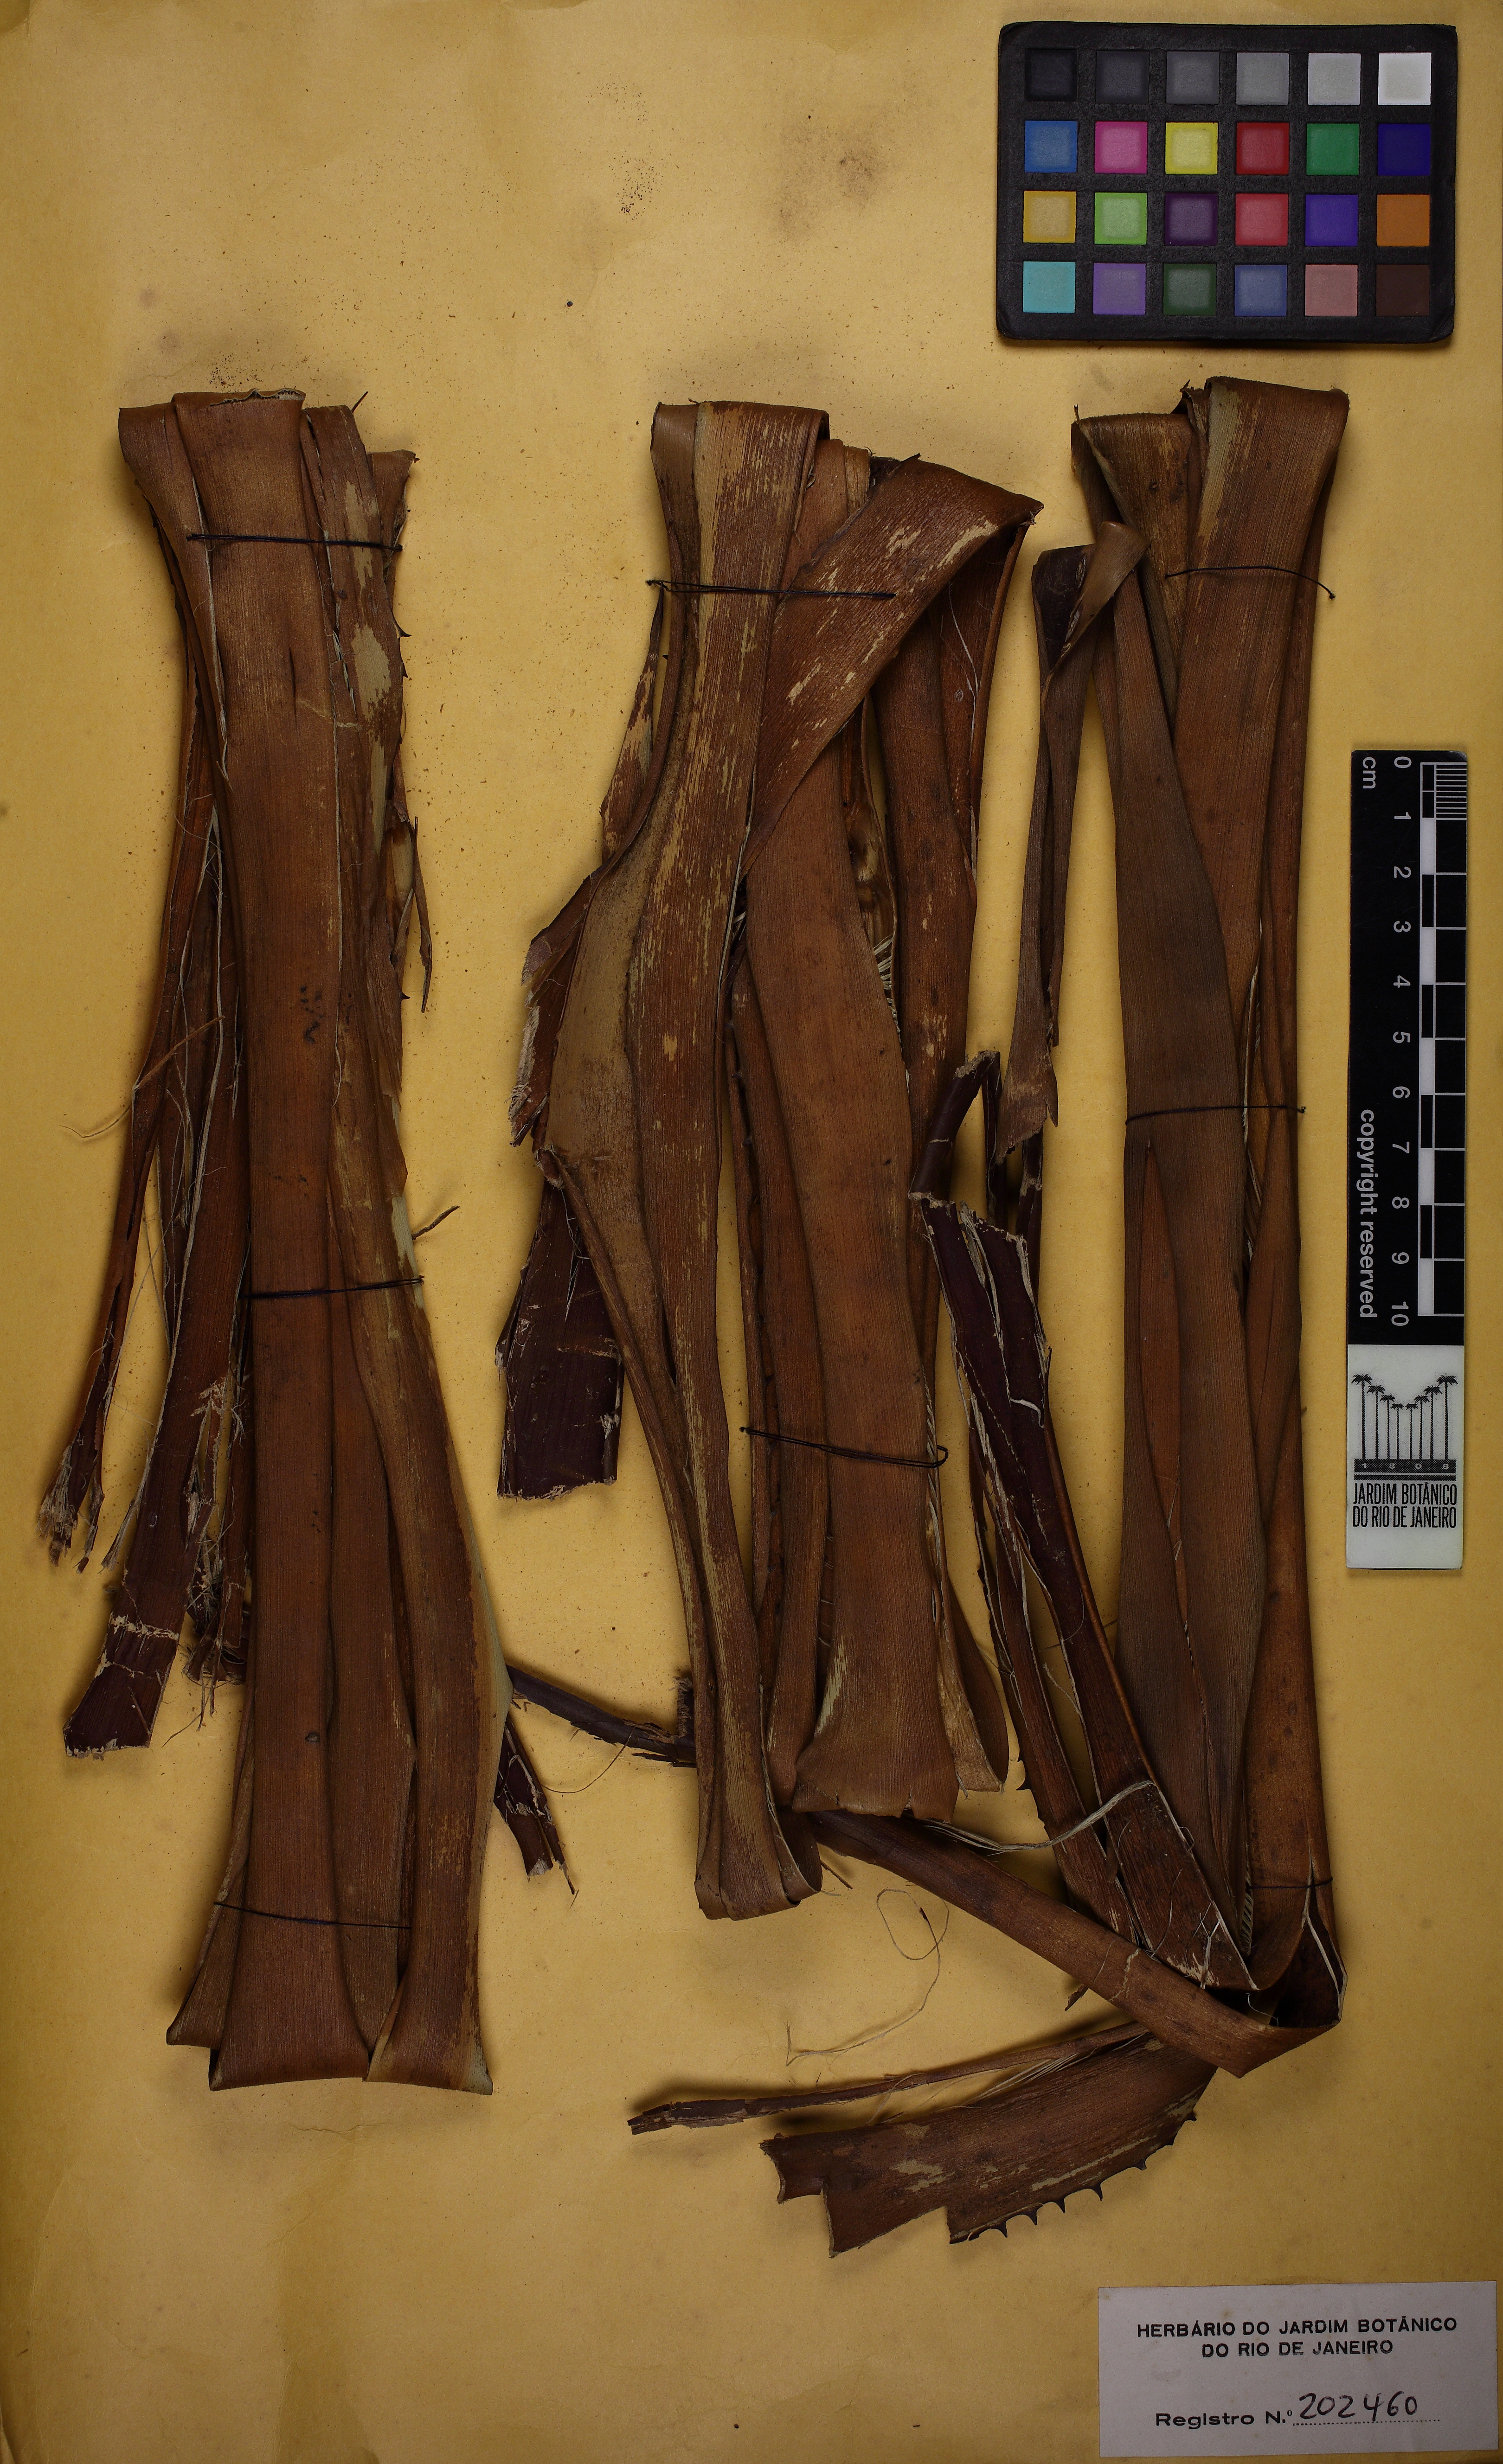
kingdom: Plantae
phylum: Tracheophyta
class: Liliopsida
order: Poales
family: Bromeliaceae
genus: Aechmea
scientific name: Aechmea castanea
